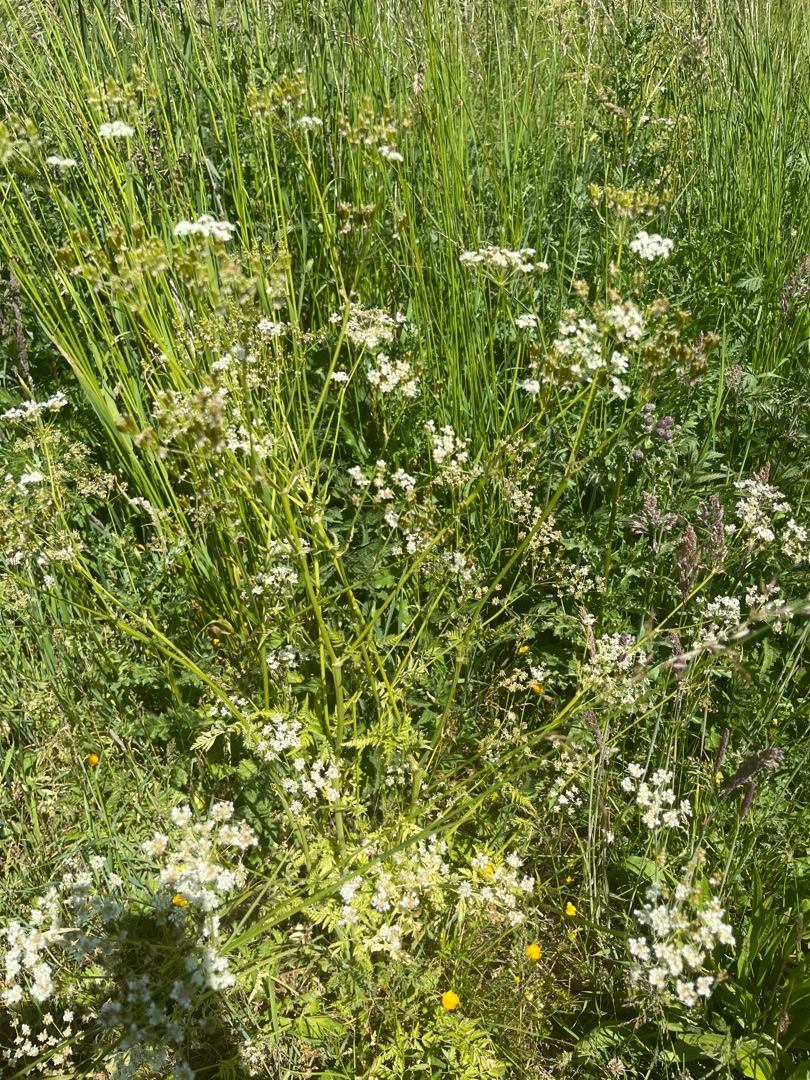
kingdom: Plantae
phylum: Tracheophyta
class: Magnoliopsida
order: Apiales
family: Apiaceae
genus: Anthriscus
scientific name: Anthriscus sylvestris
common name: Vild kørvel
